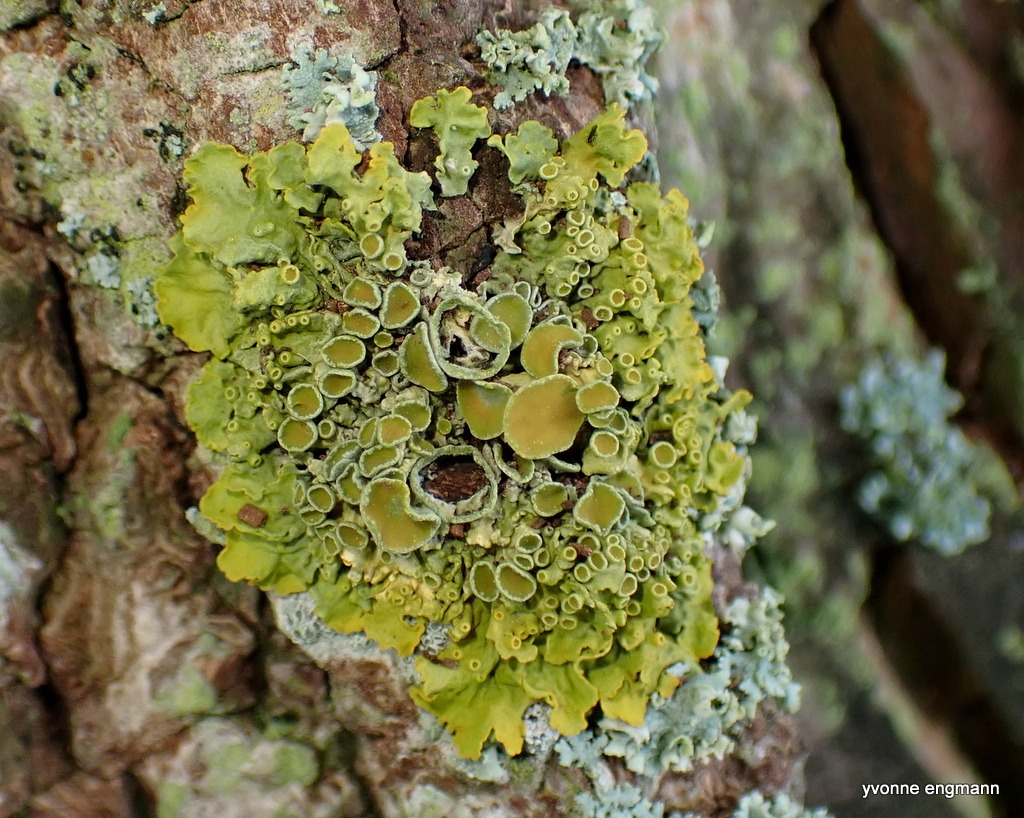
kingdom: Fungi
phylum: Ascomycota
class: Lecanoromycetes
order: Teloschistales
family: Teloschistaceae
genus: Xanthoria
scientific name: Xanthoria parietina
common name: Almindelig væggelav
